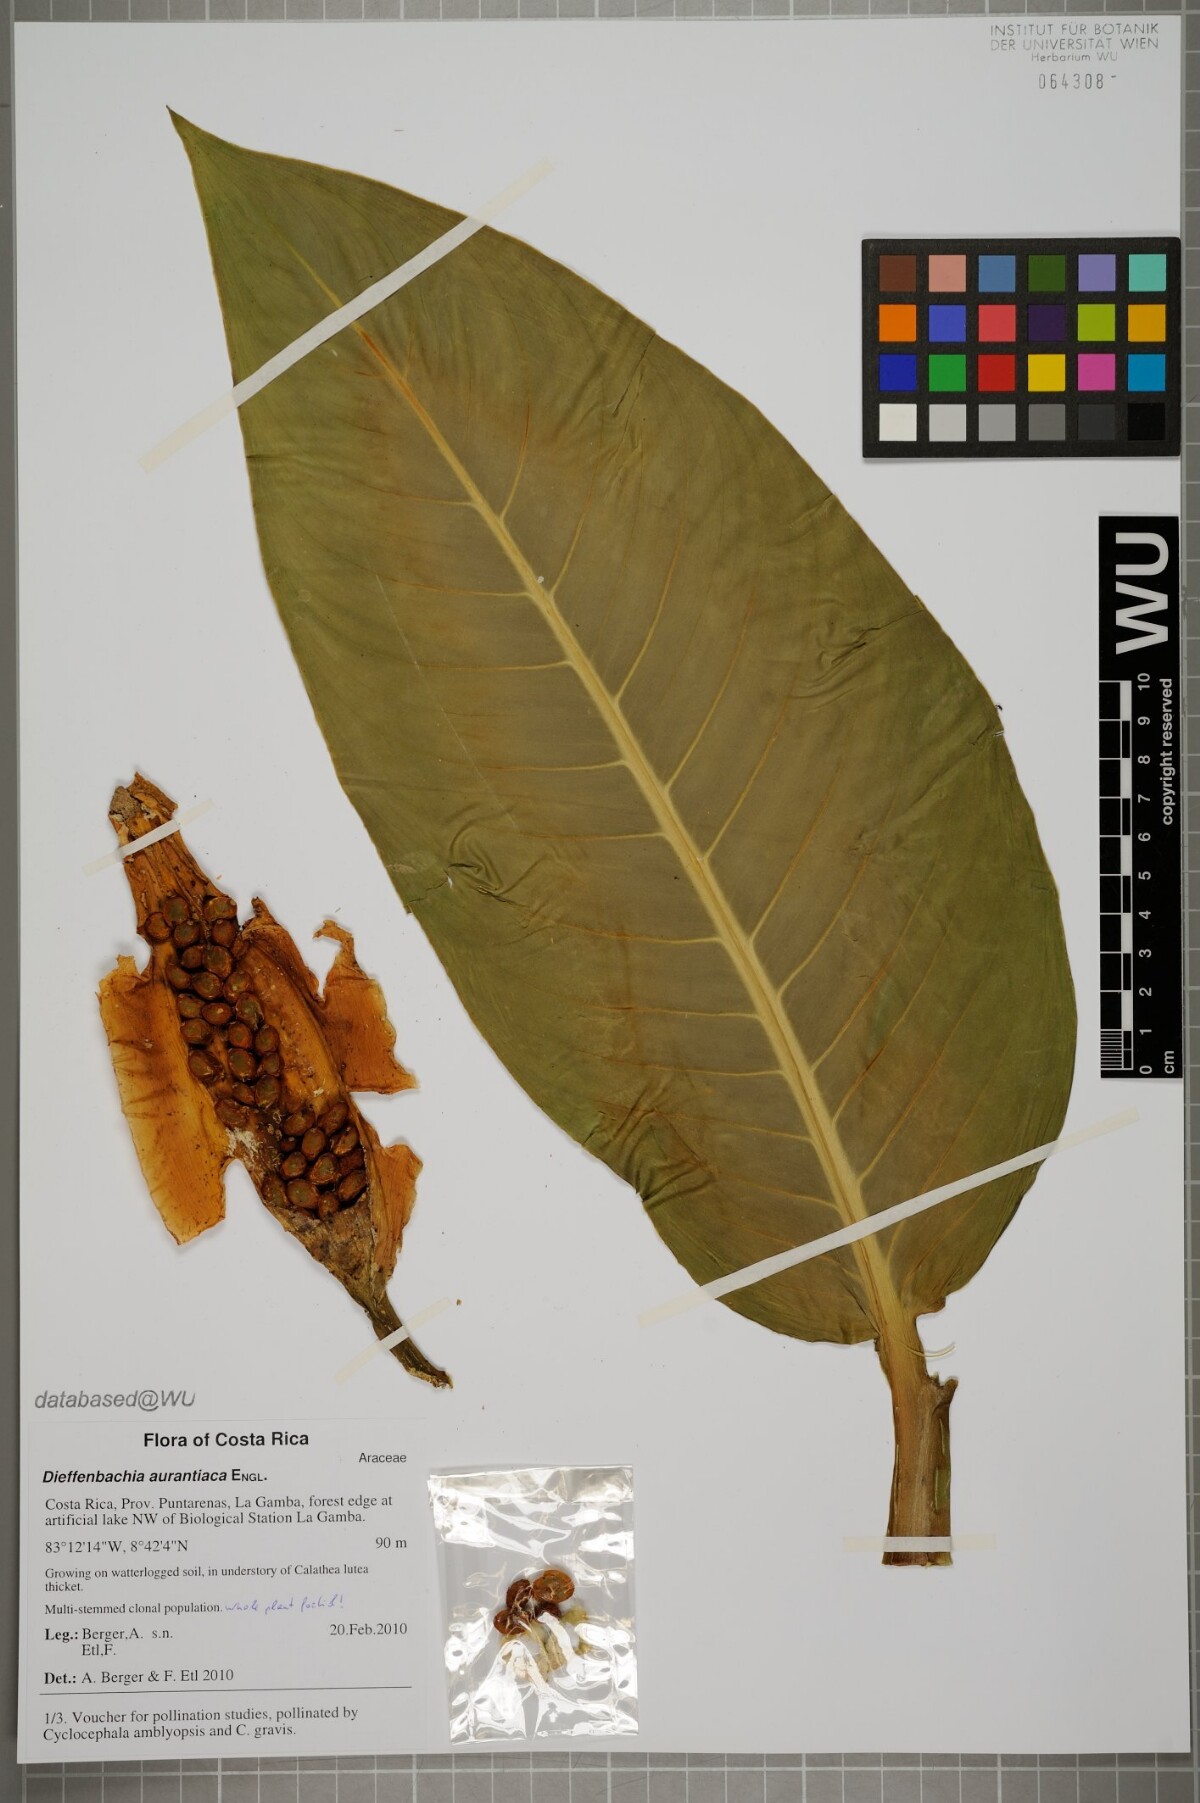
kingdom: Plantae
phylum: Tracheophyta
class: Liliopsida
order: Alismatales
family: Araceae
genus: Dieffenbachia
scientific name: Dieffenbachia aurantiaca
